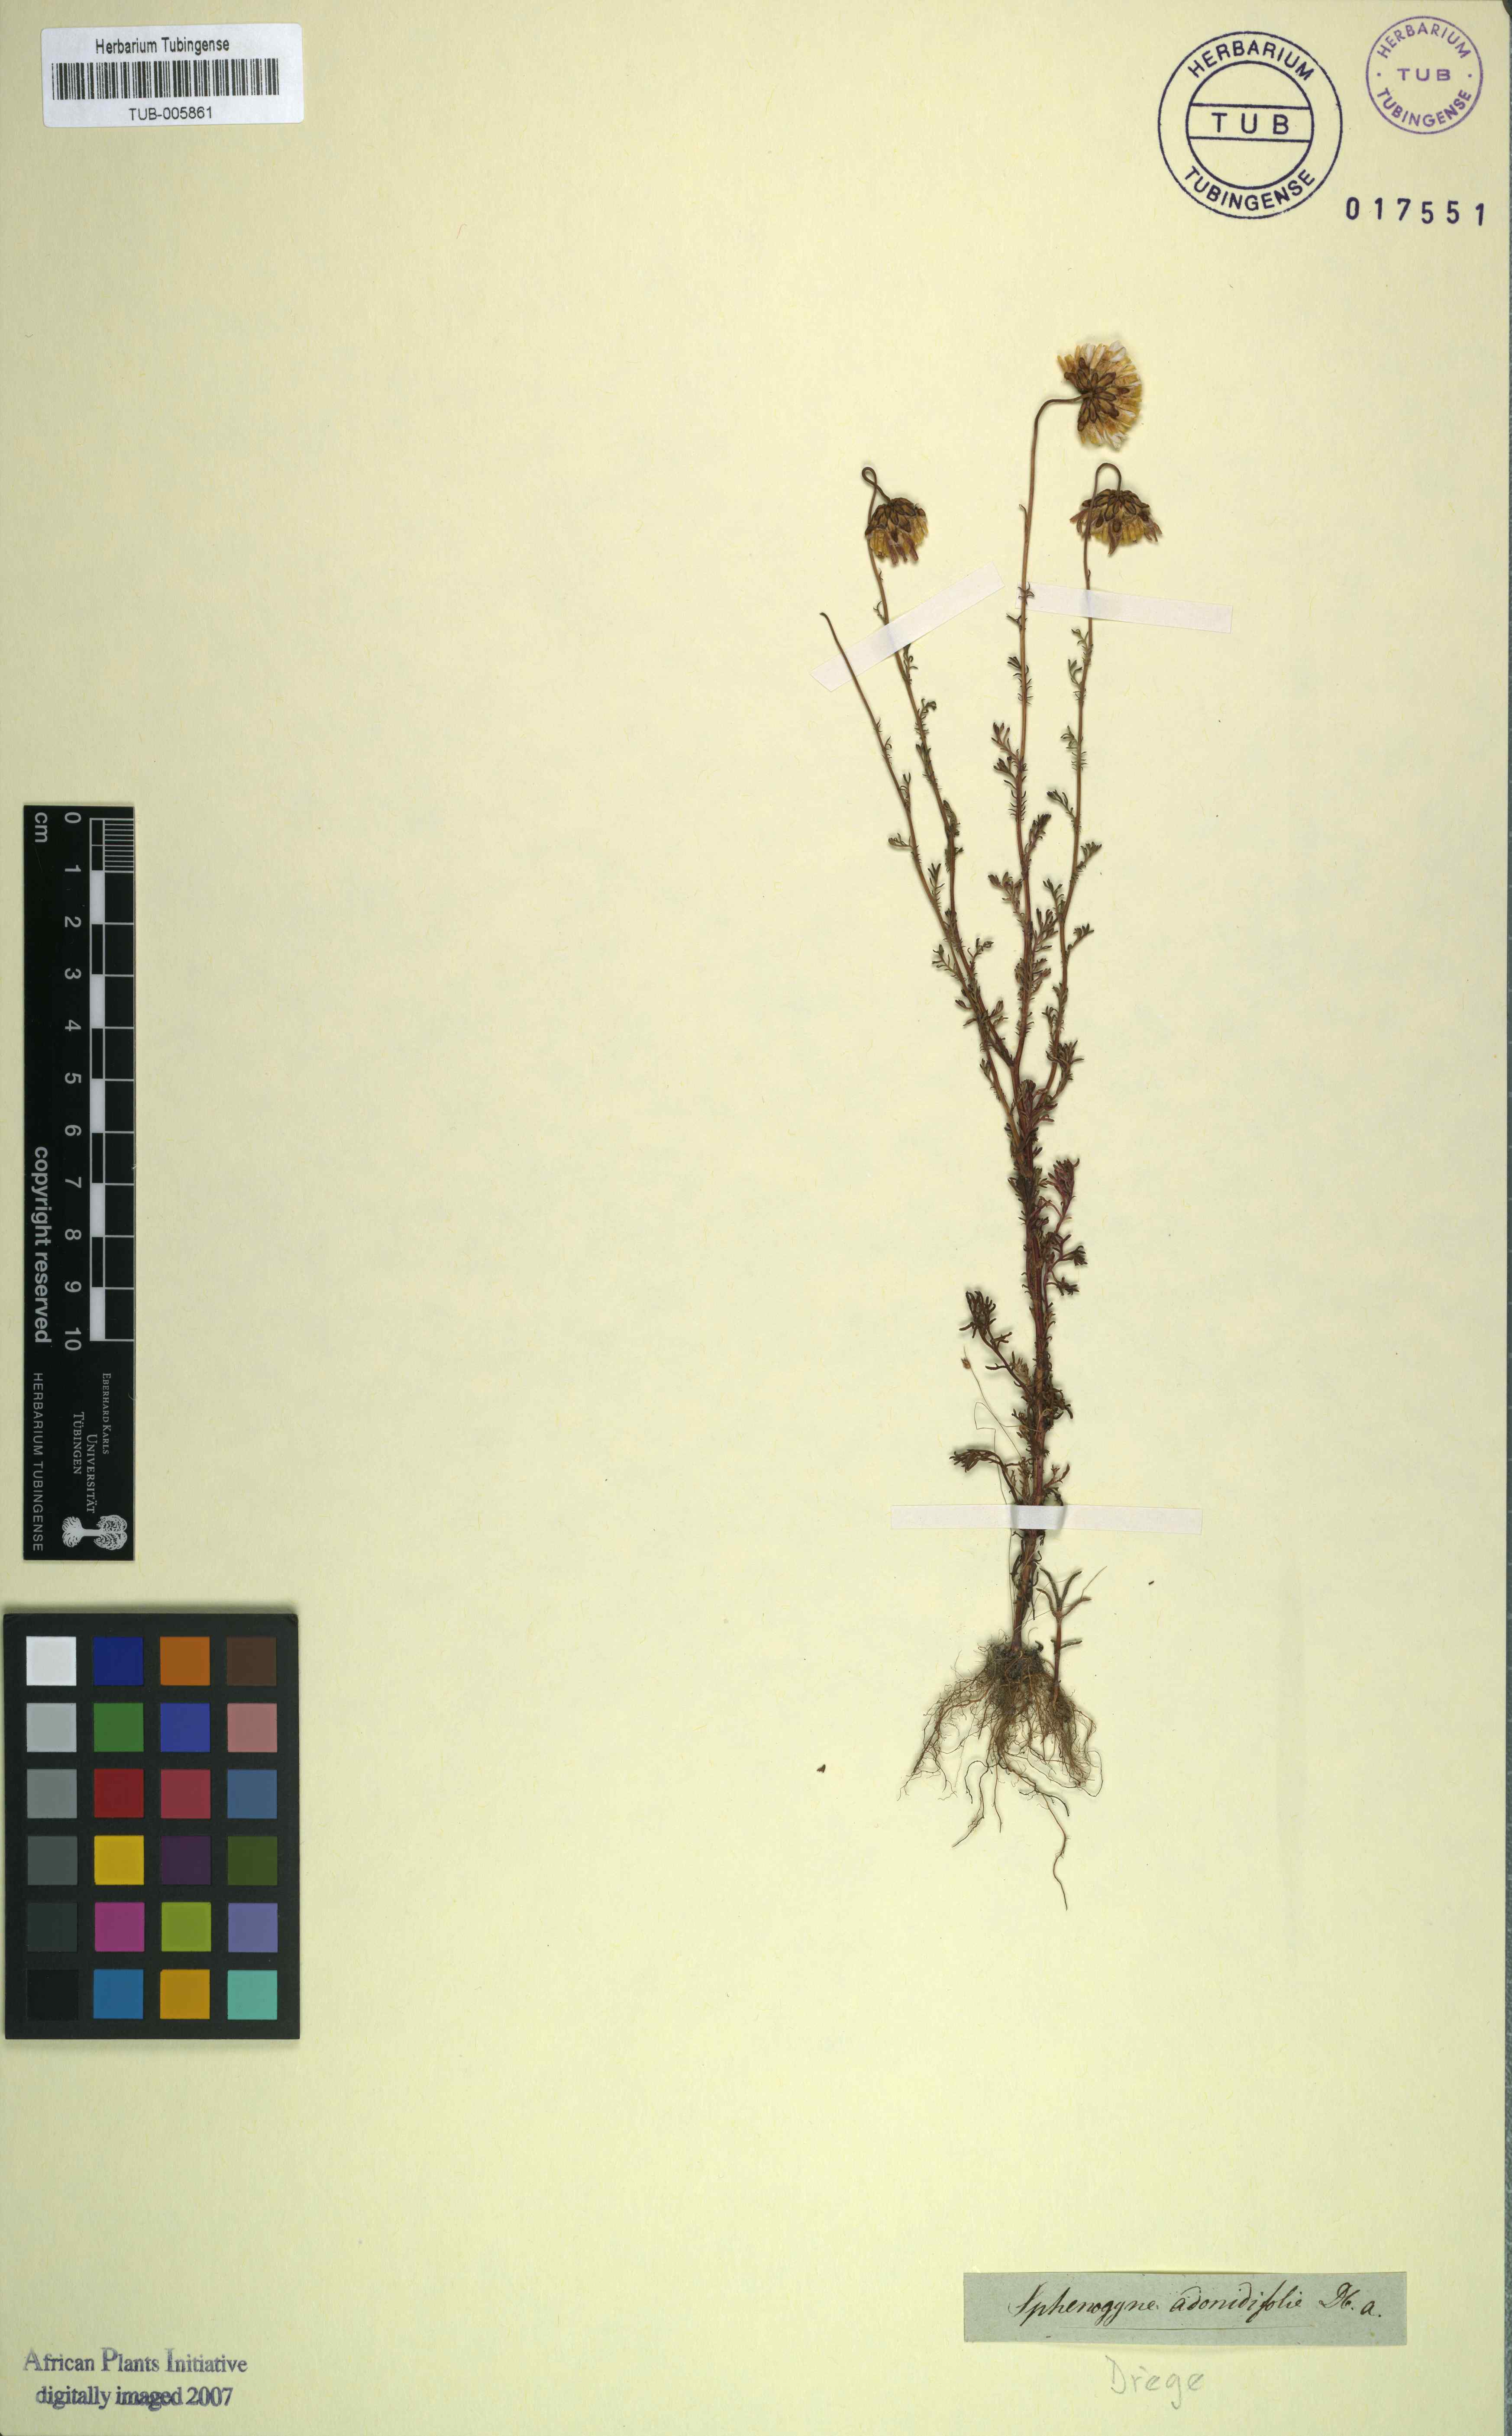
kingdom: Plantae
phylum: Tracheophyta
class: Magnoliopsida
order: Asterales
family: Asteraceae
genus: Ursinia
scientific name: Ursinia anthemoides
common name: Ursinia
